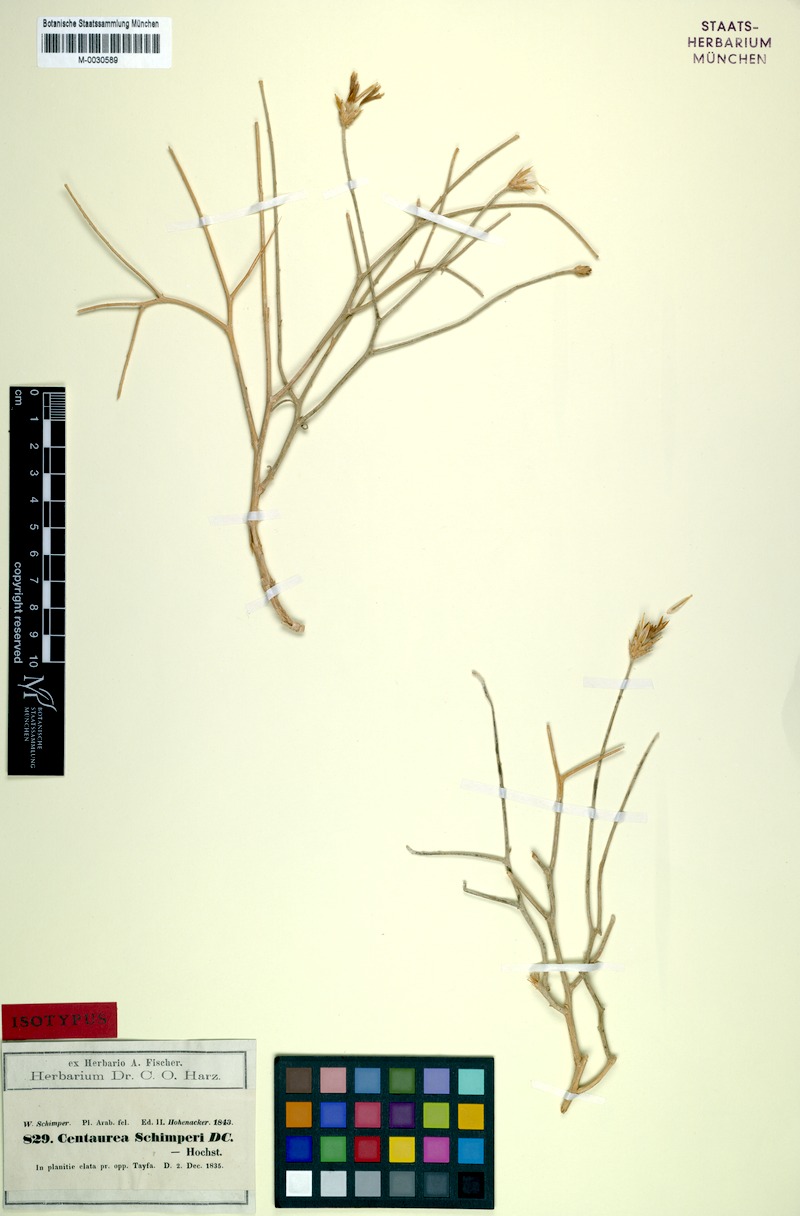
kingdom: Plantae
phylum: Tracheophyta
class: Magnoliopsida
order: Asterales
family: Asteraceae
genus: Centaurea
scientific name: Centaurea schimperi
